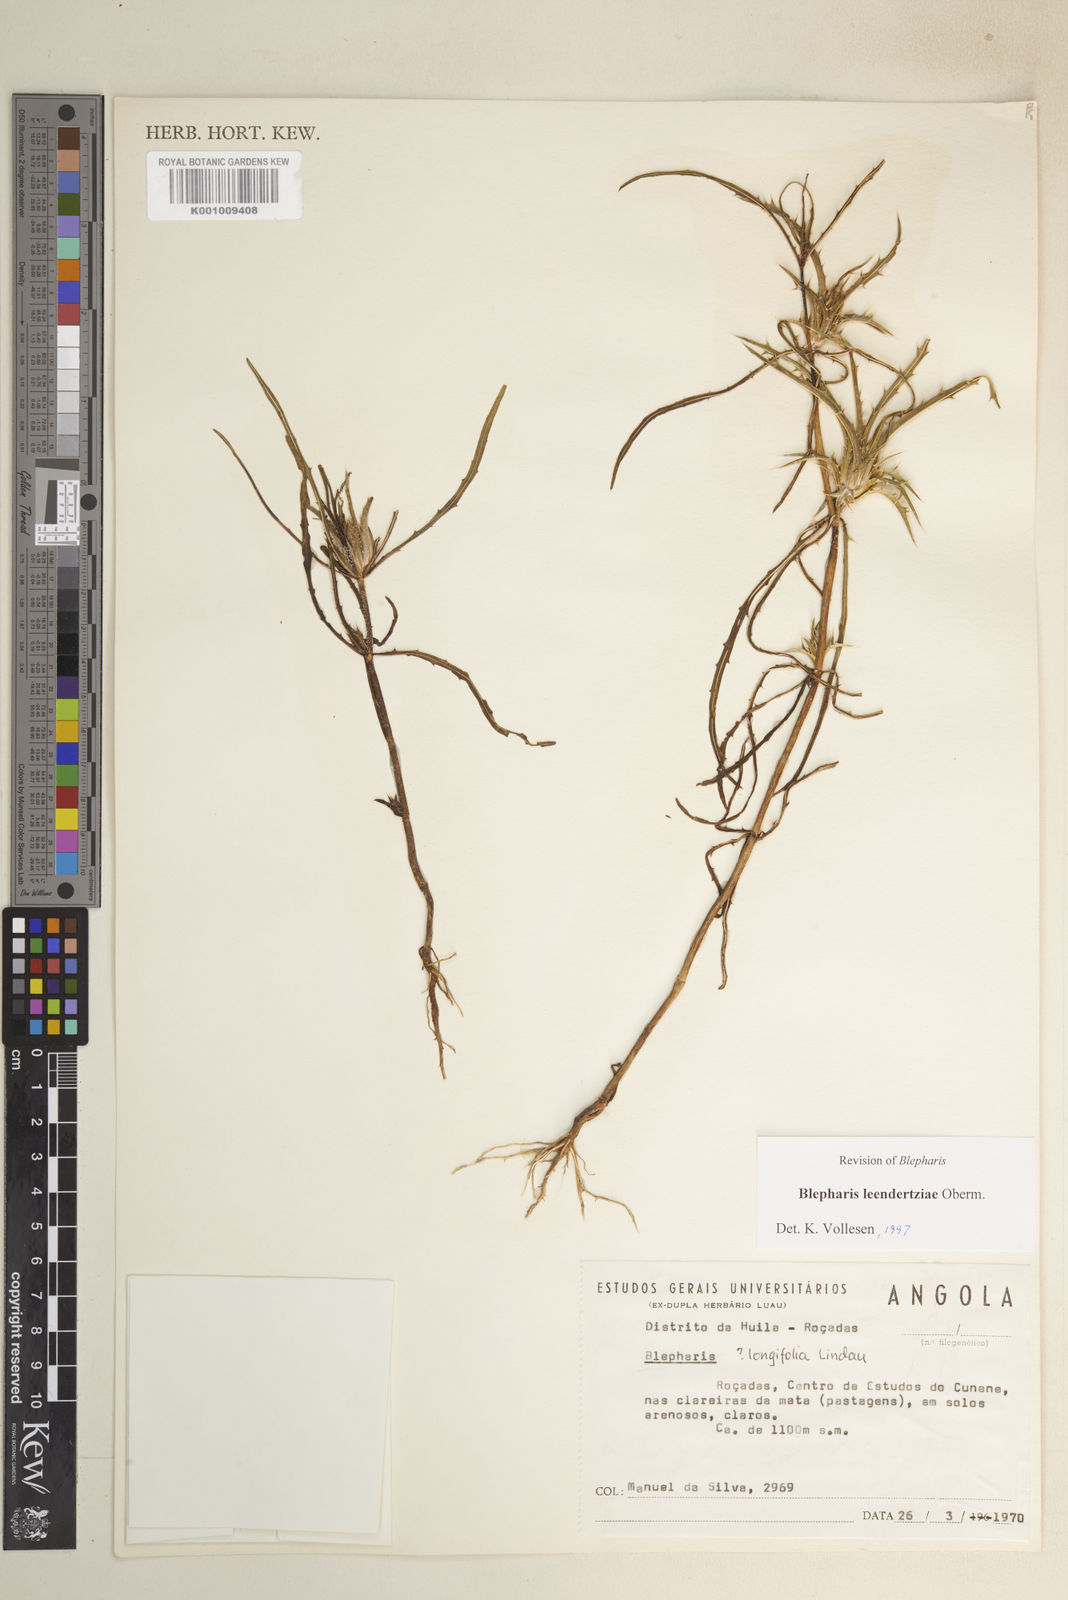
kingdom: Plantae
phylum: Tracheophyta
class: Magnoliopsida
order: Lamiales
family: Acanthaceae
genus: Blepharis
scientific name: Blepharis leendertziae
